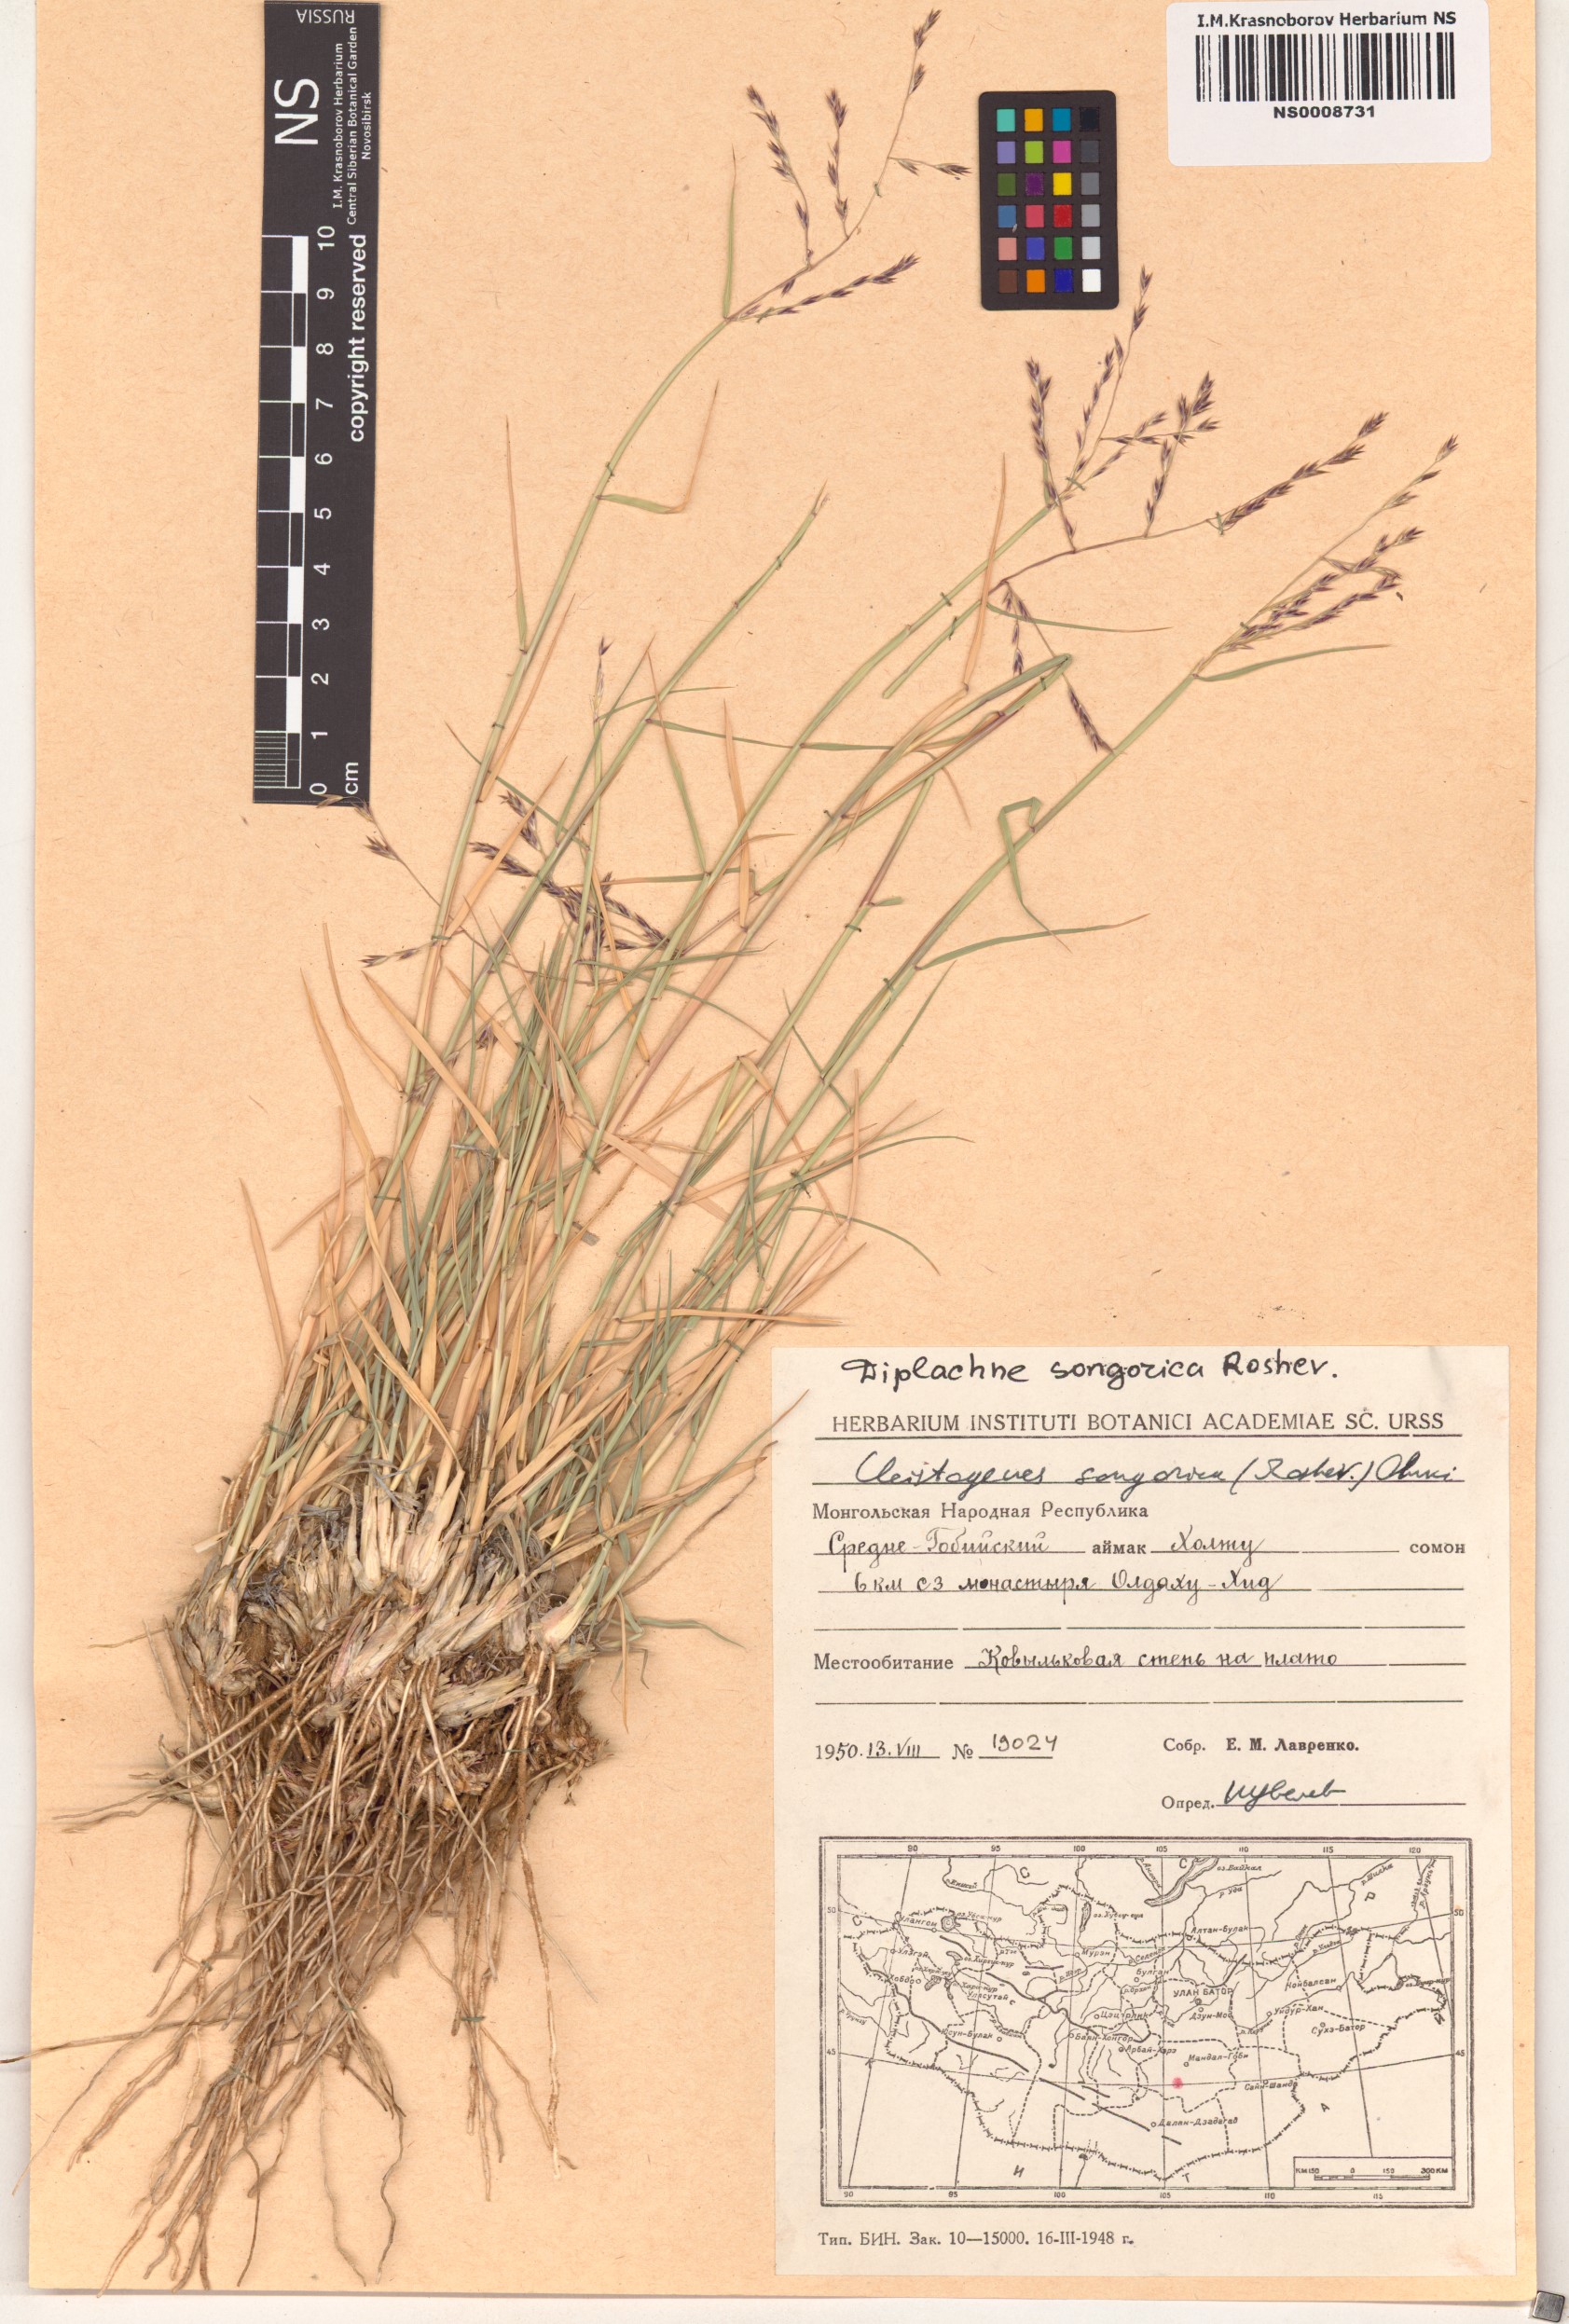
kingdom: Plantae
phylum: Tracheophyta
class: Liliopsida
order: Poales
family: Poaceae
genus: Cleistogenes
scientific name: Cleistogenes songorica
